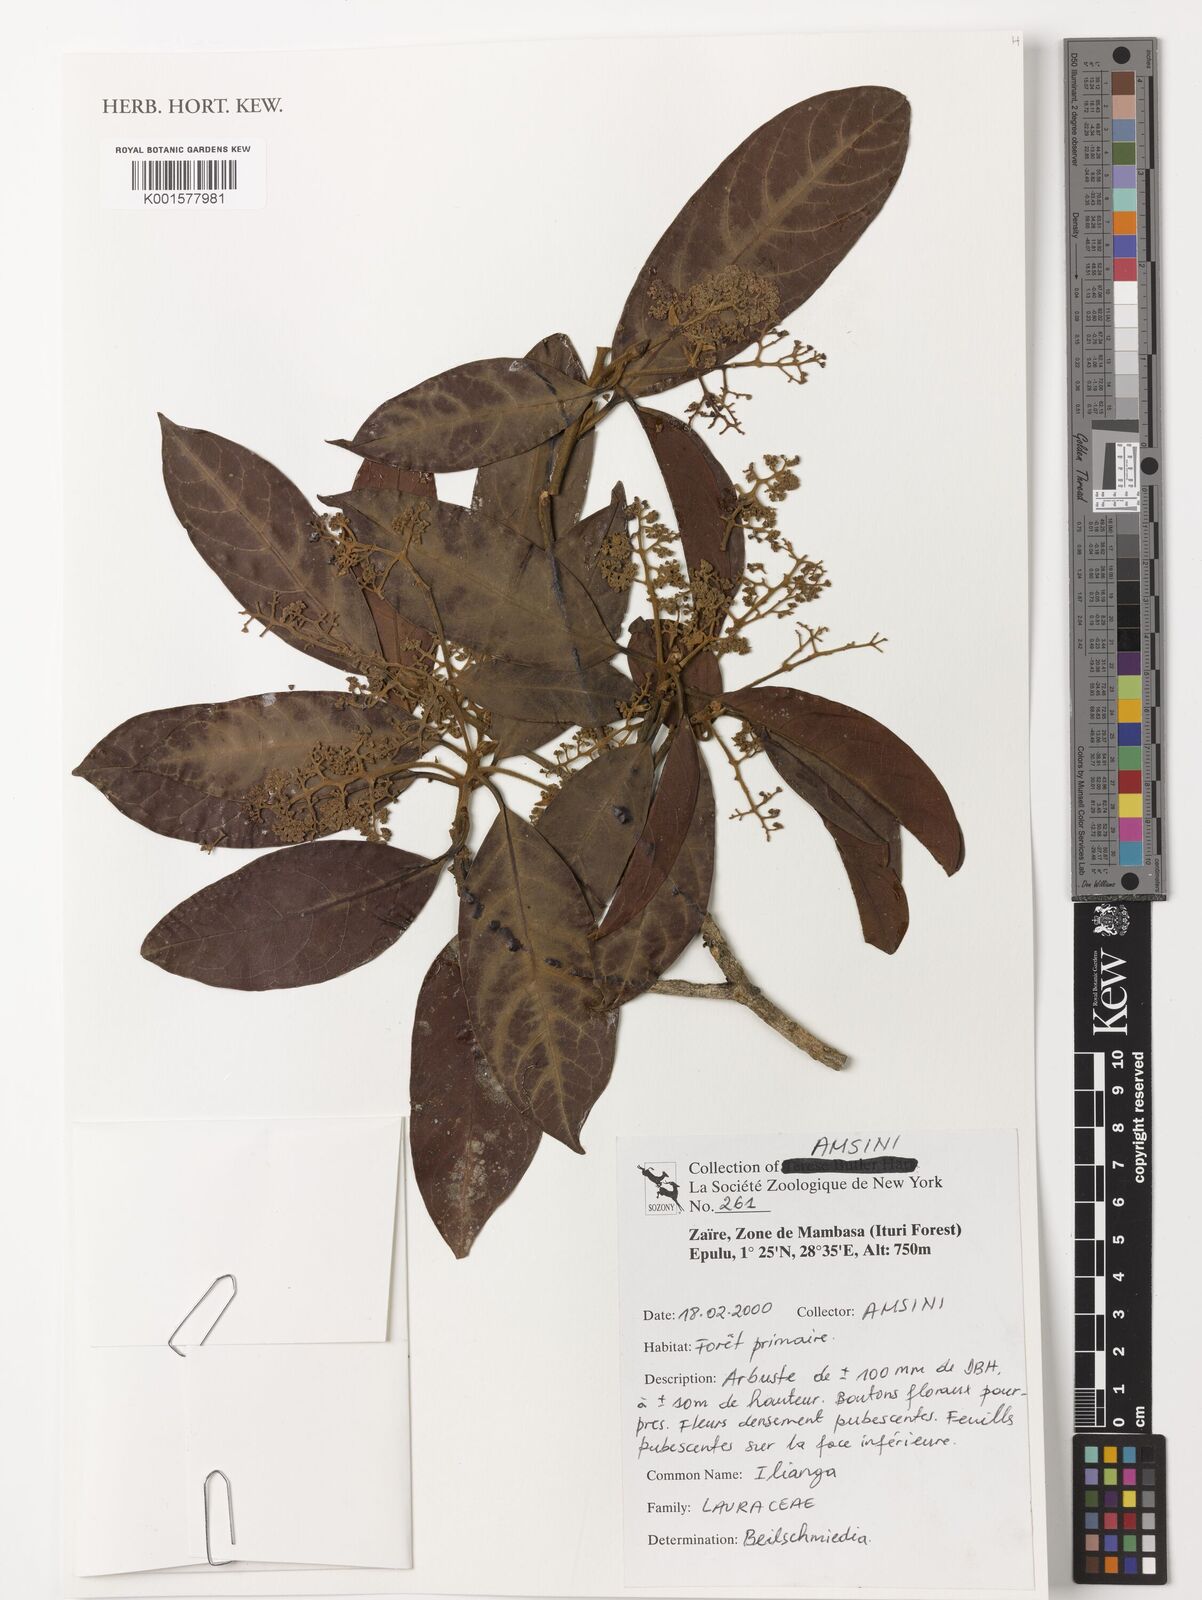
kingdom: Plantae
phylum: Tracheophyta
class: Magnoliopsida
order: Laurales
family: Lauraceae
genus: Beilschmiedia
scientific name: Beilschmiedia
